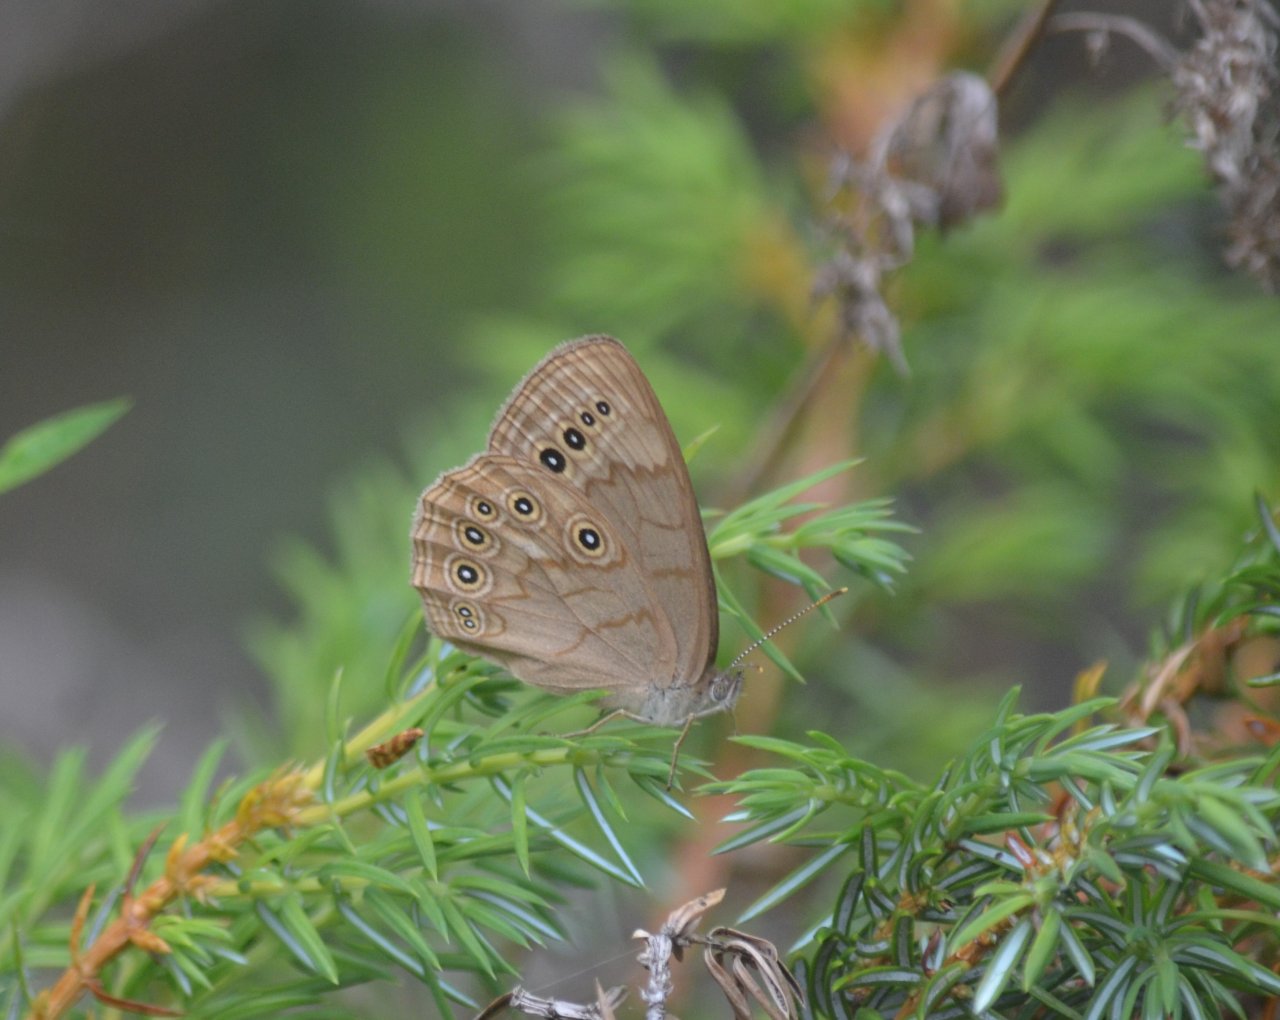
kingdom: Animalia
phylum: Arthropoda
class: Insecta
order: Lepidoptera
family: Nymphalidae
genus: Lethe
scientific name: Lethe eurydice
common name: Eyed Brown
